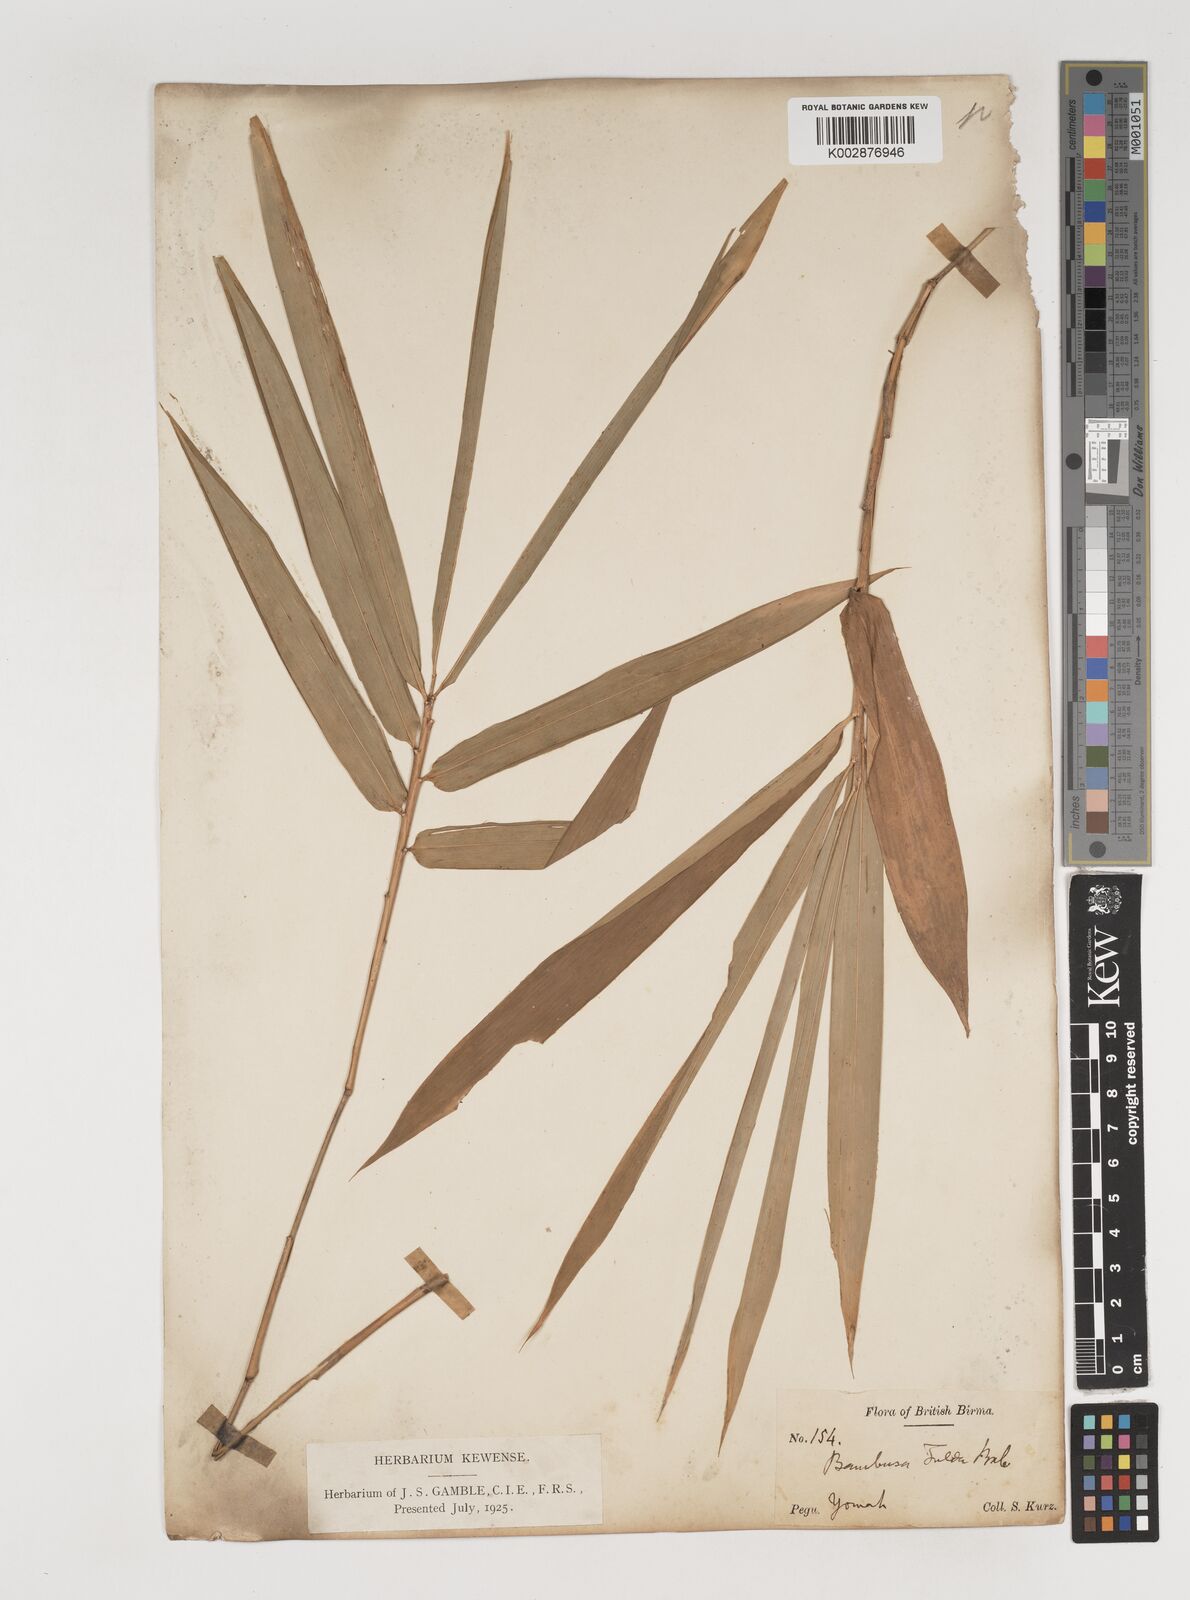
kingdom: Plantae
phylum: Tracheophyta
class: Liliopsida
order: Poales
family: Poaceae
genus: Bambusa
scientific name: Bambusa tulda
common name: Bengal bamboo
